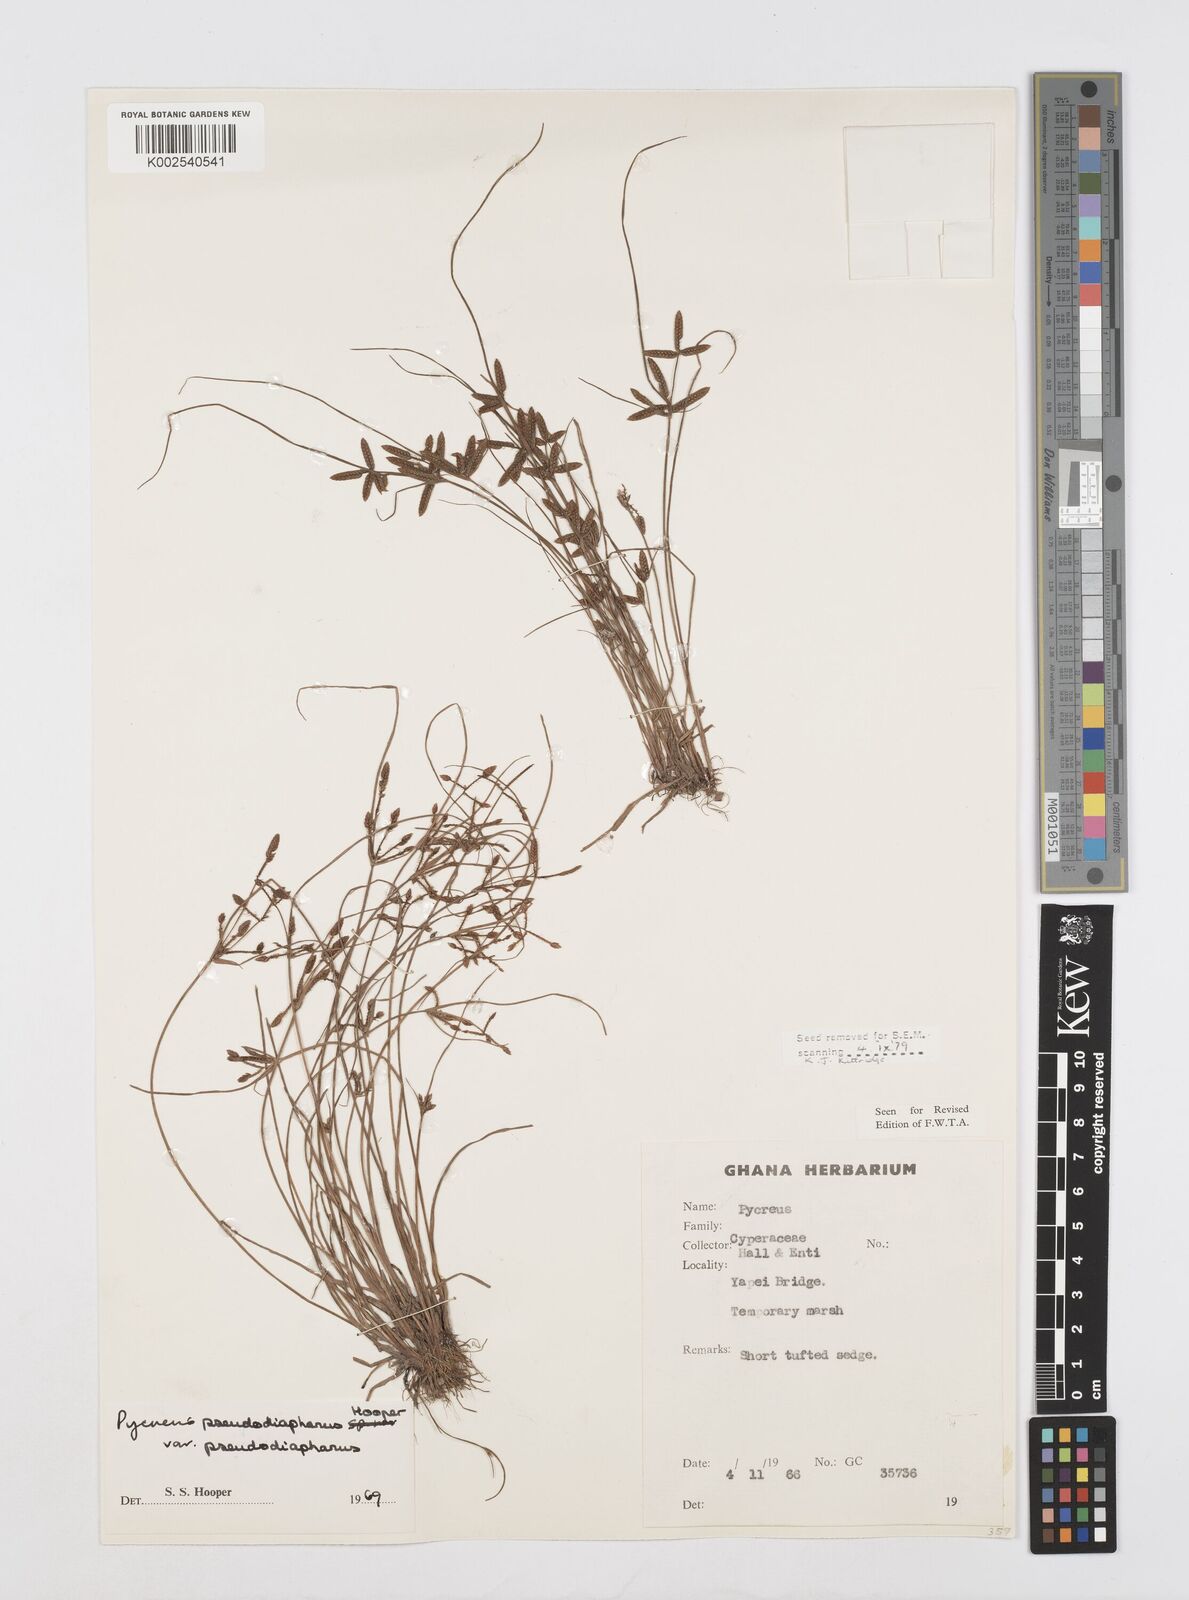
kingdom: Plantae
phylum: Tracheophyta
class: Liliopsida
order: Poales
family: Cyperaceae
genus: Cyperus
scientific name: Cyperus pseudodiaphanus
